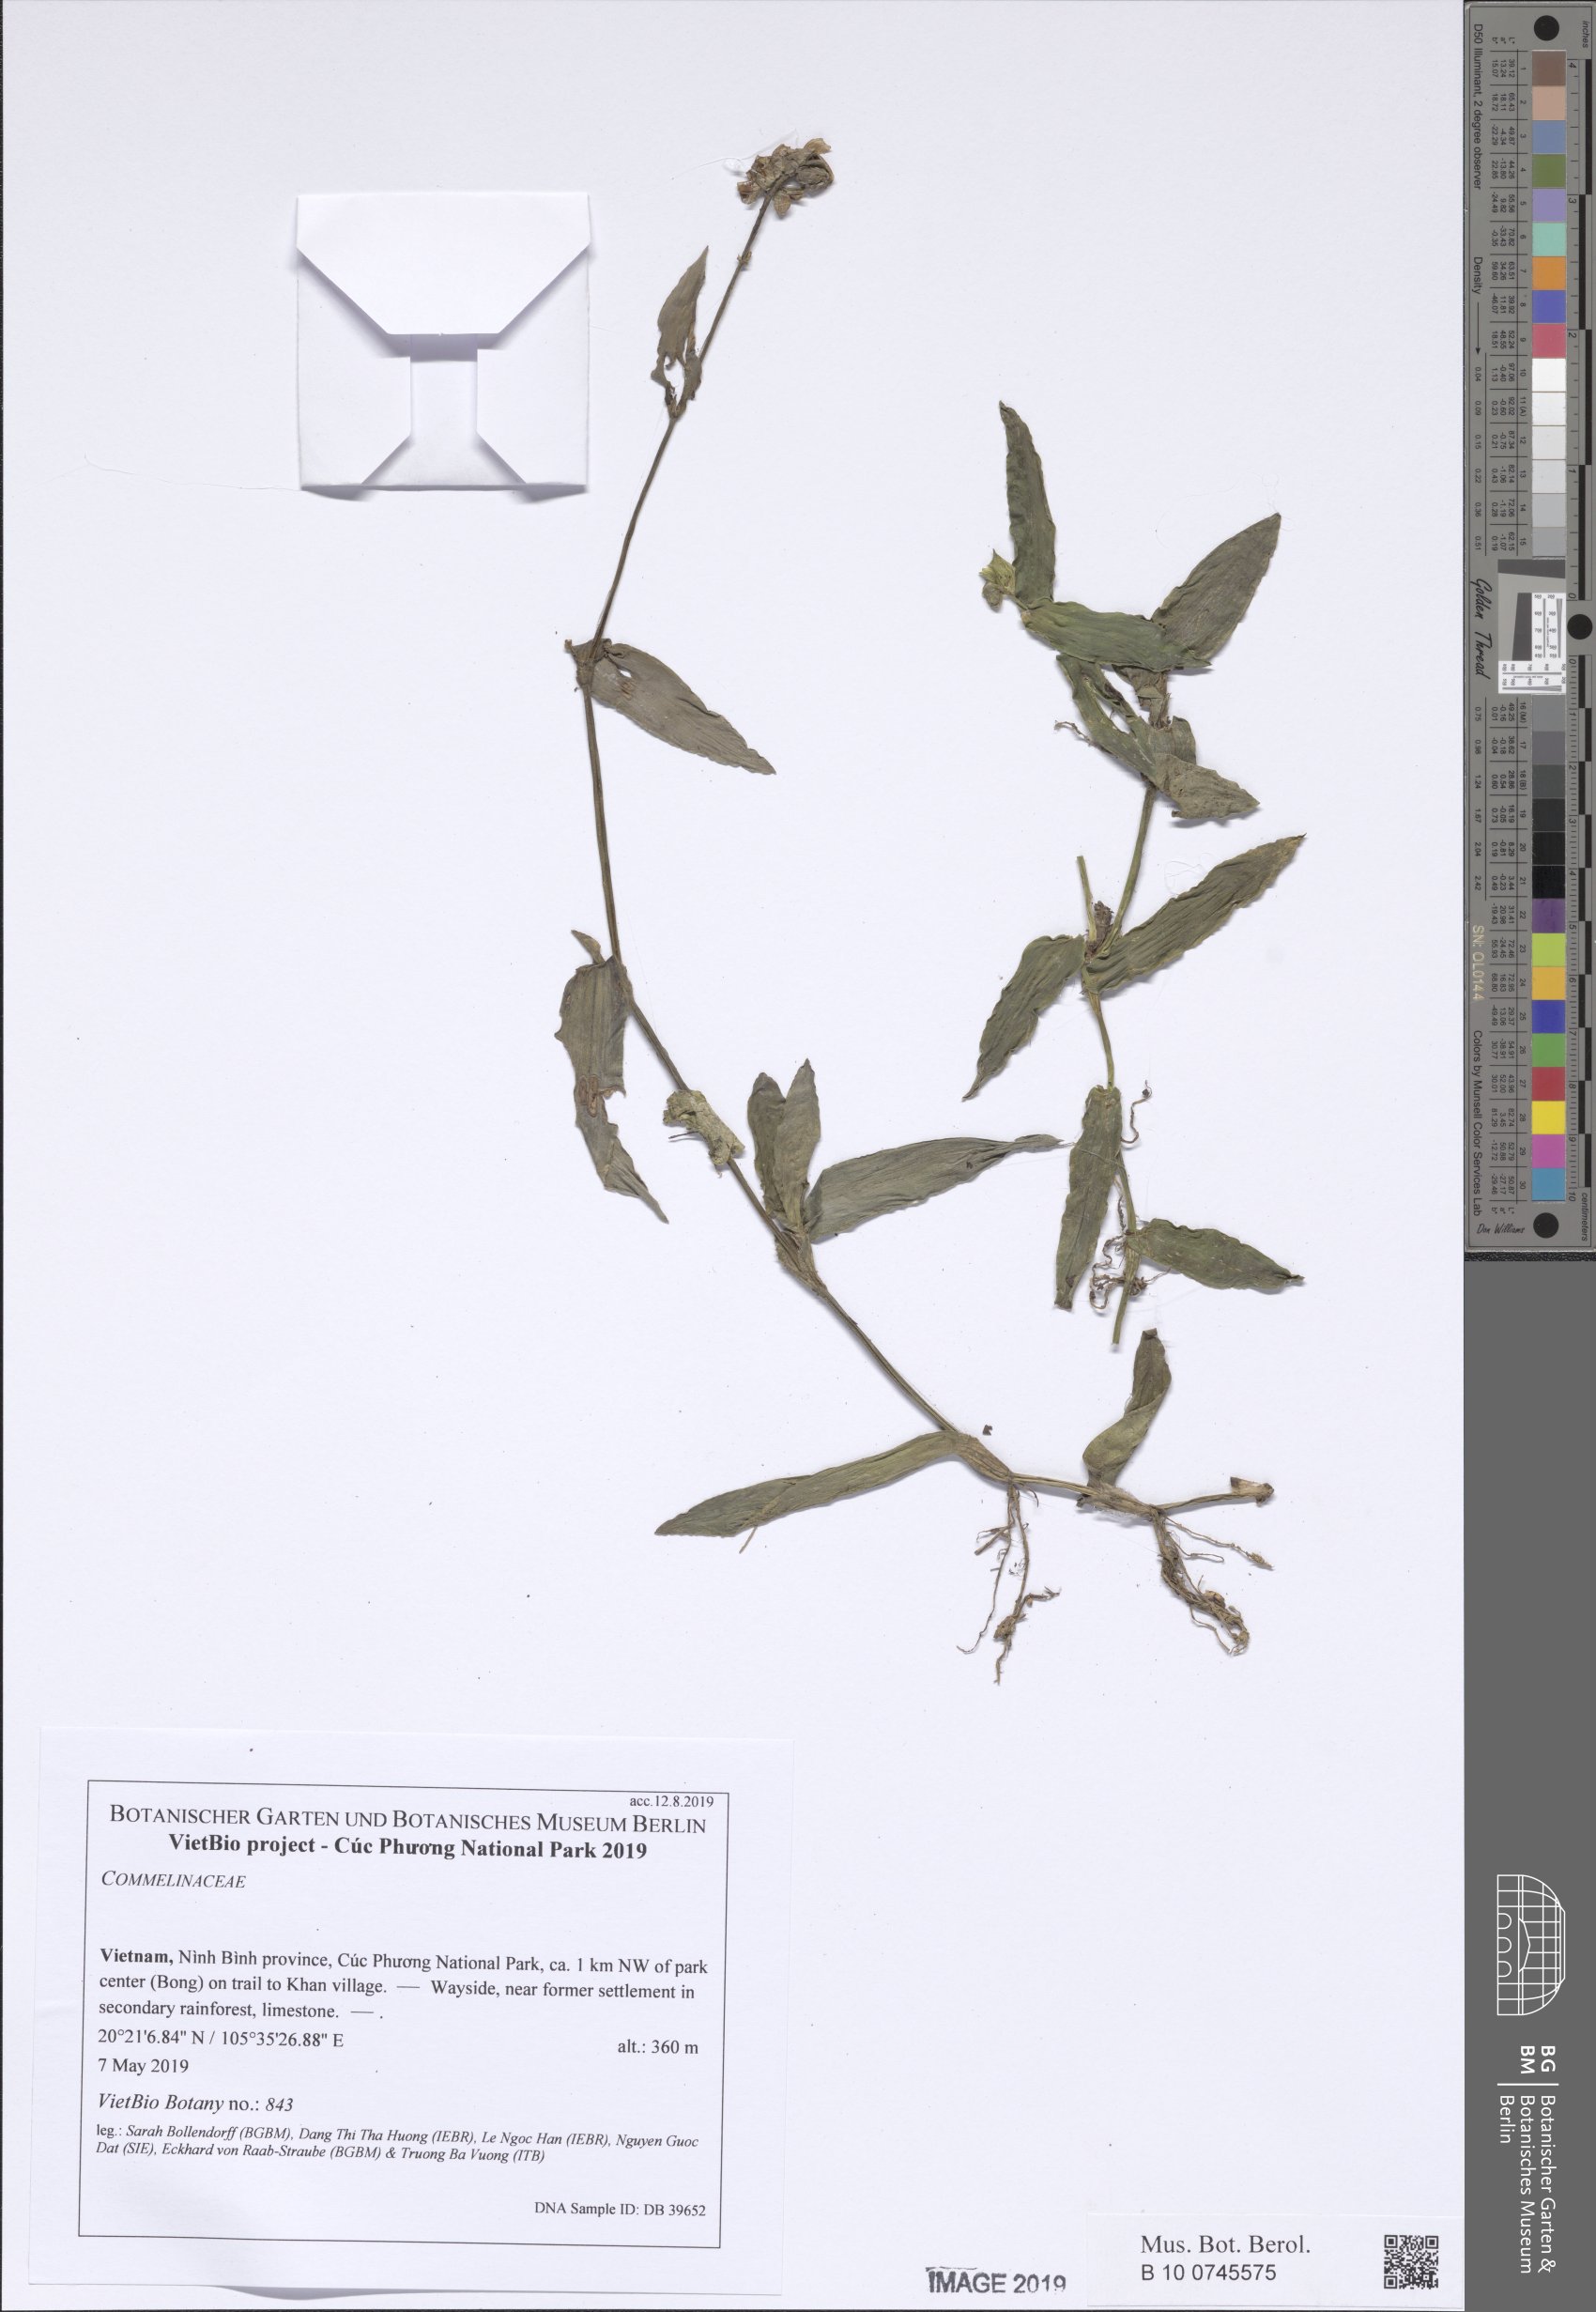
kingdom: Plantae
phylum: Tracheophyta
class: Liliopsida
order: Commelinales
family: Commelinaceae
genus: Murdannia
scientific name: Murdannia
